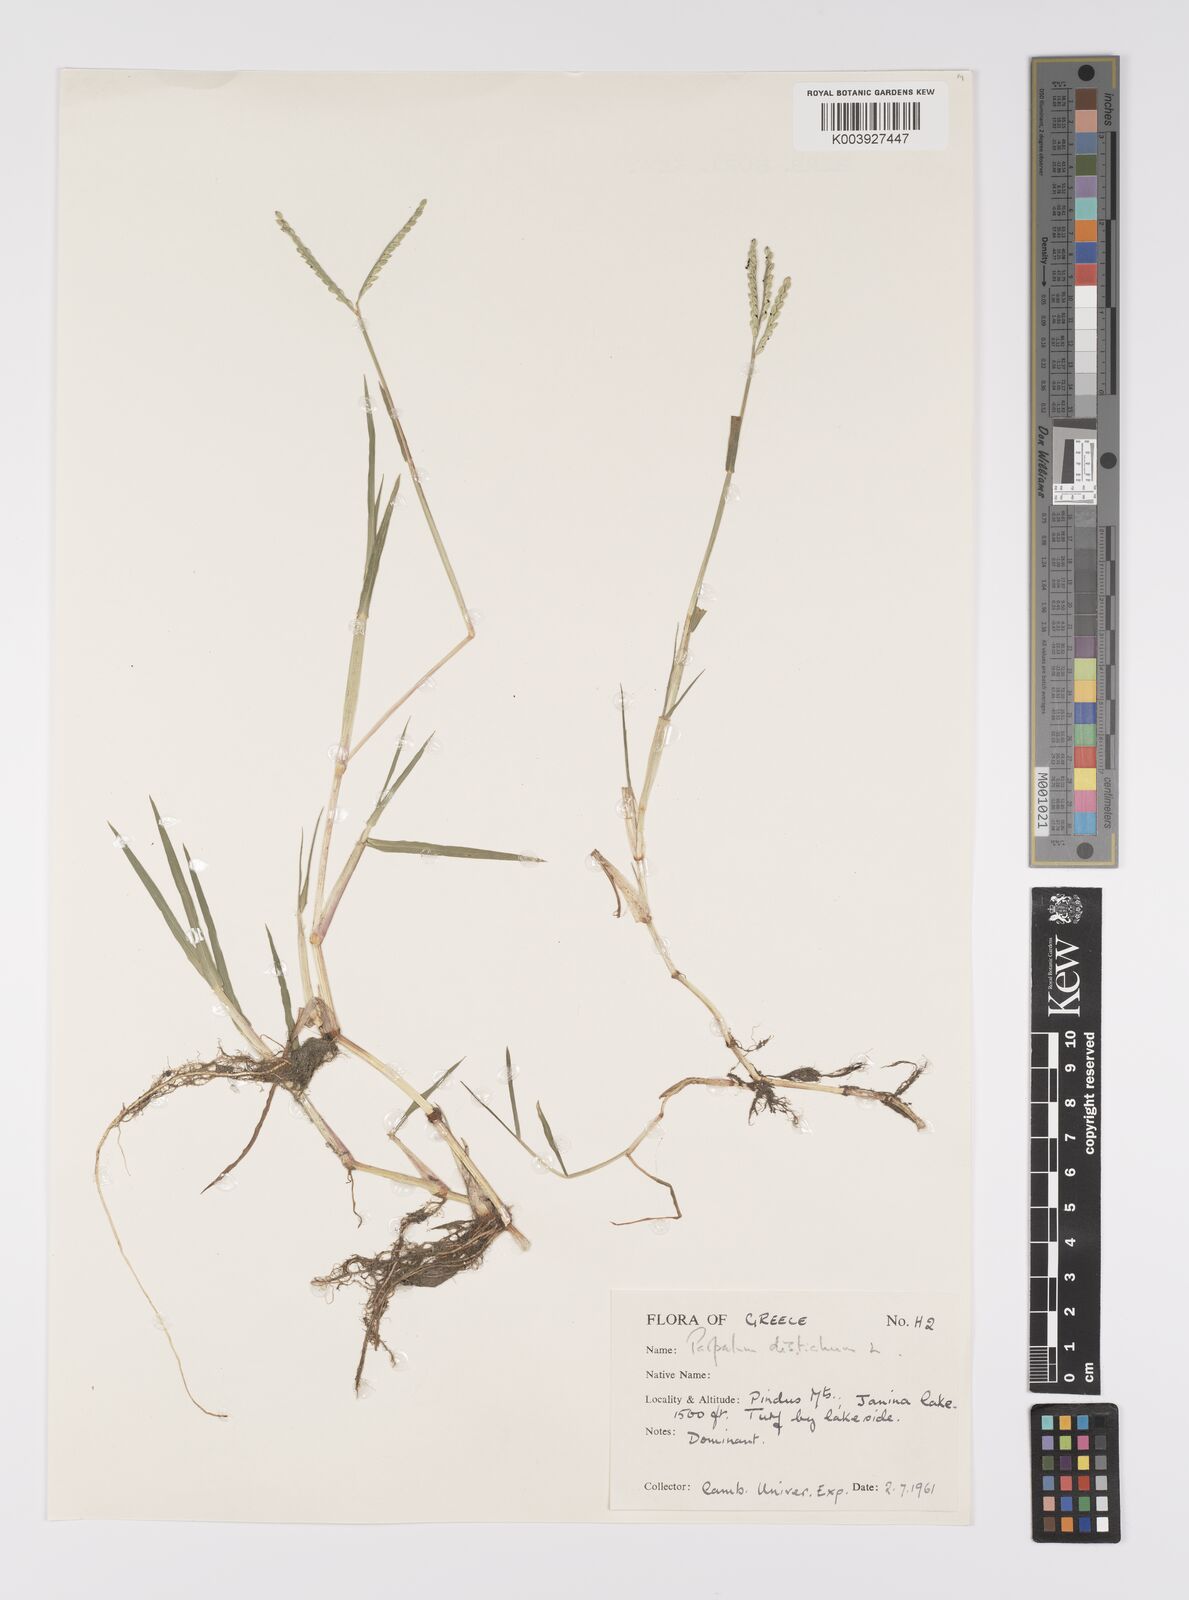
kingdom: Plantae
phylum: Tracheophyta
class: Liliopsida
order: Poales
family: Poaceae
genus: Paspalum
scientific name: Paspalum distichum
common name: Knotgrass
